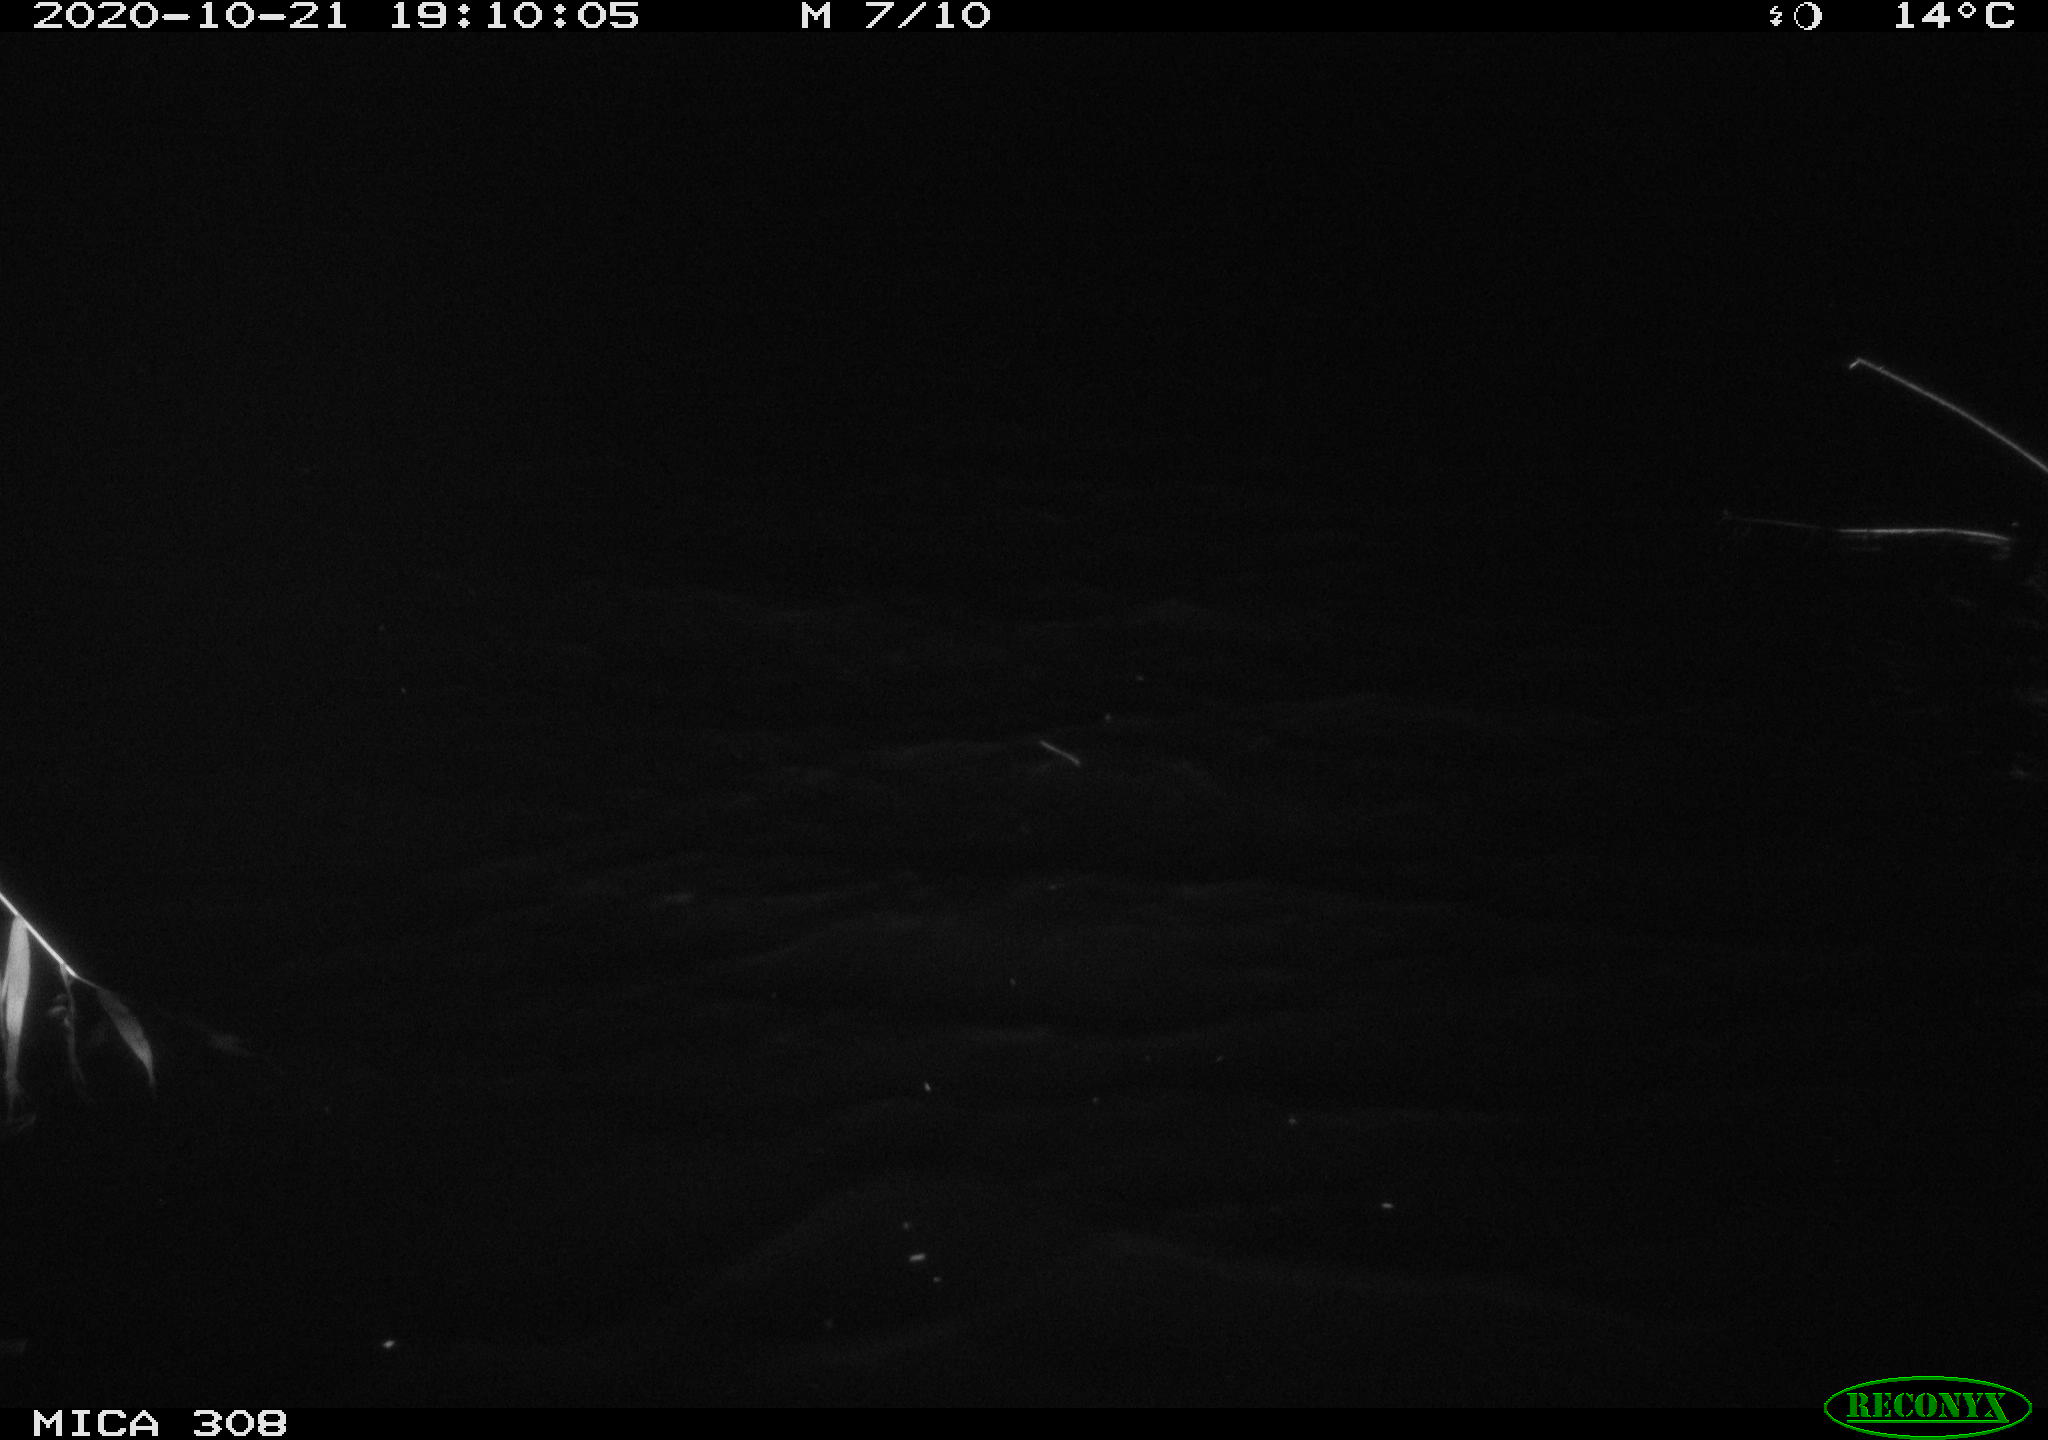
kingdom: Animalia
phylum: Chordata
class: Mammalia
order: Rodentia
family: Muridae
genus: Rattus
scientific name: Rattus norvegicus
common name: Brown rat
